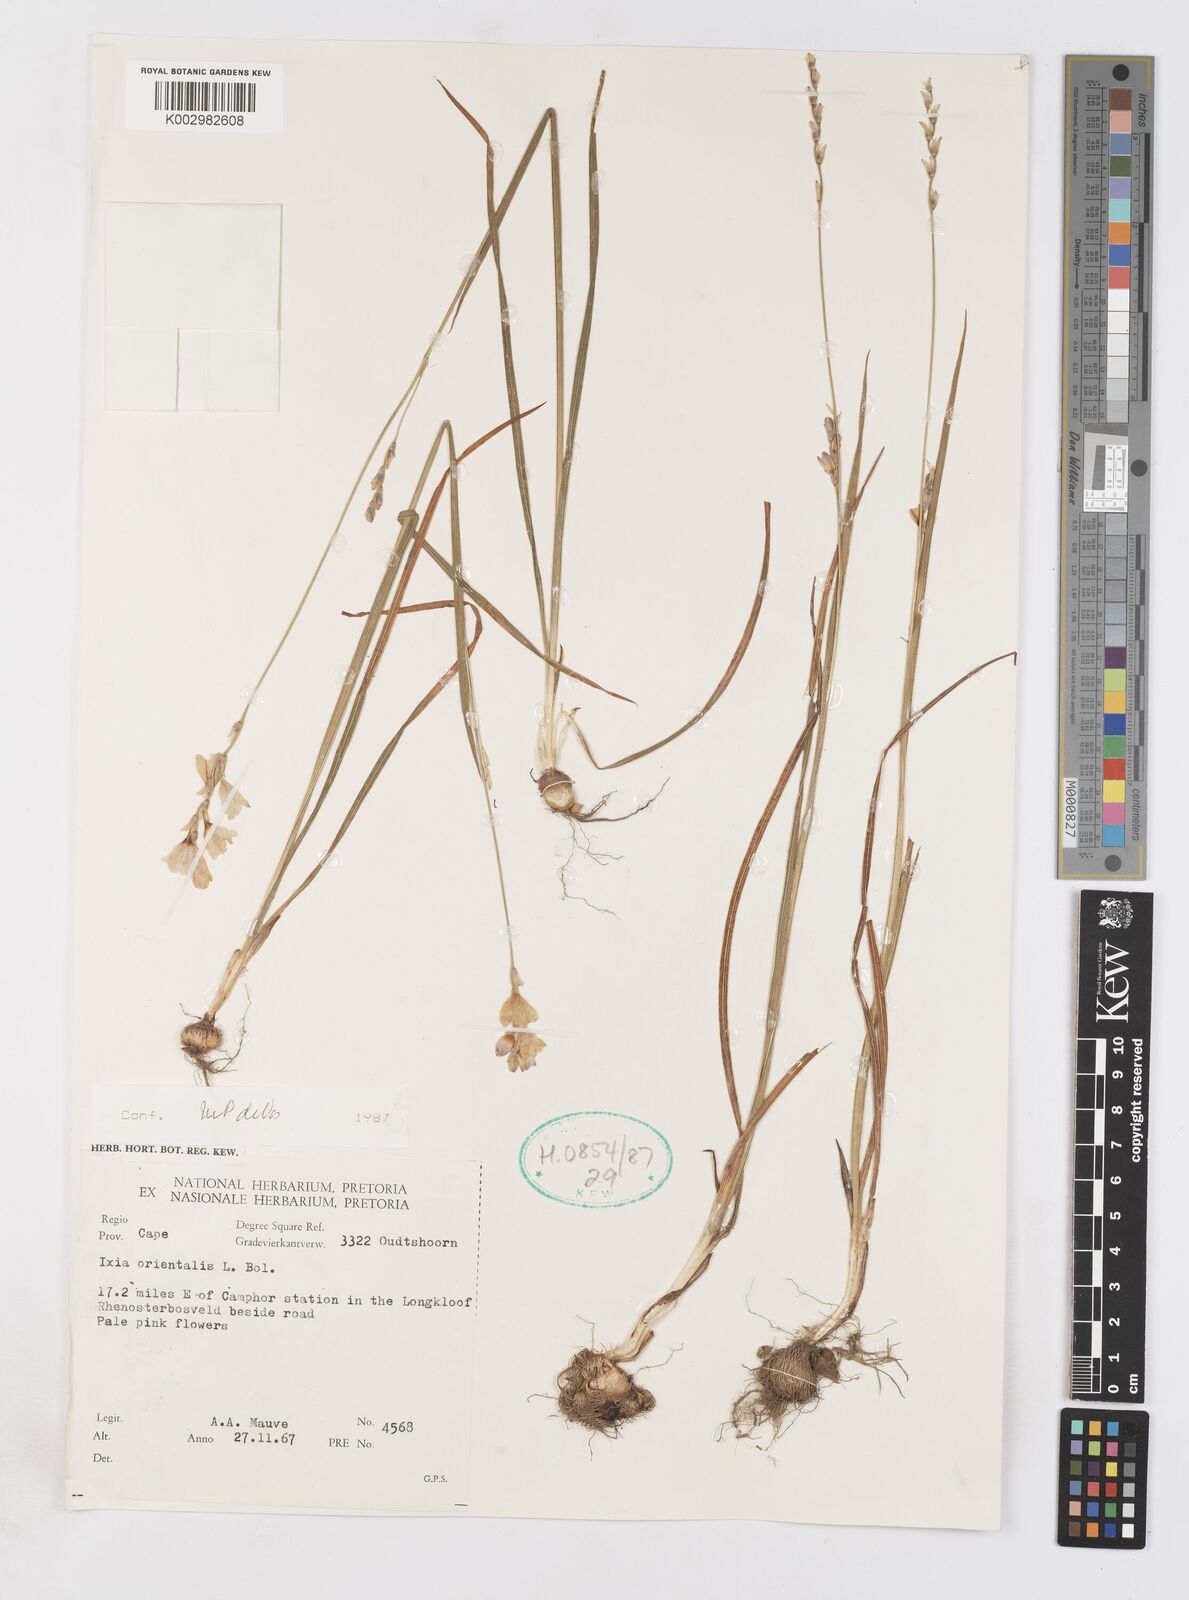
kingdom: Plantae
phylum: Tracheophyta
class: Liliopsida
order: Asparagales
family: Iridaceae
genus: Ixia
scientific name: Ixia orientalis
